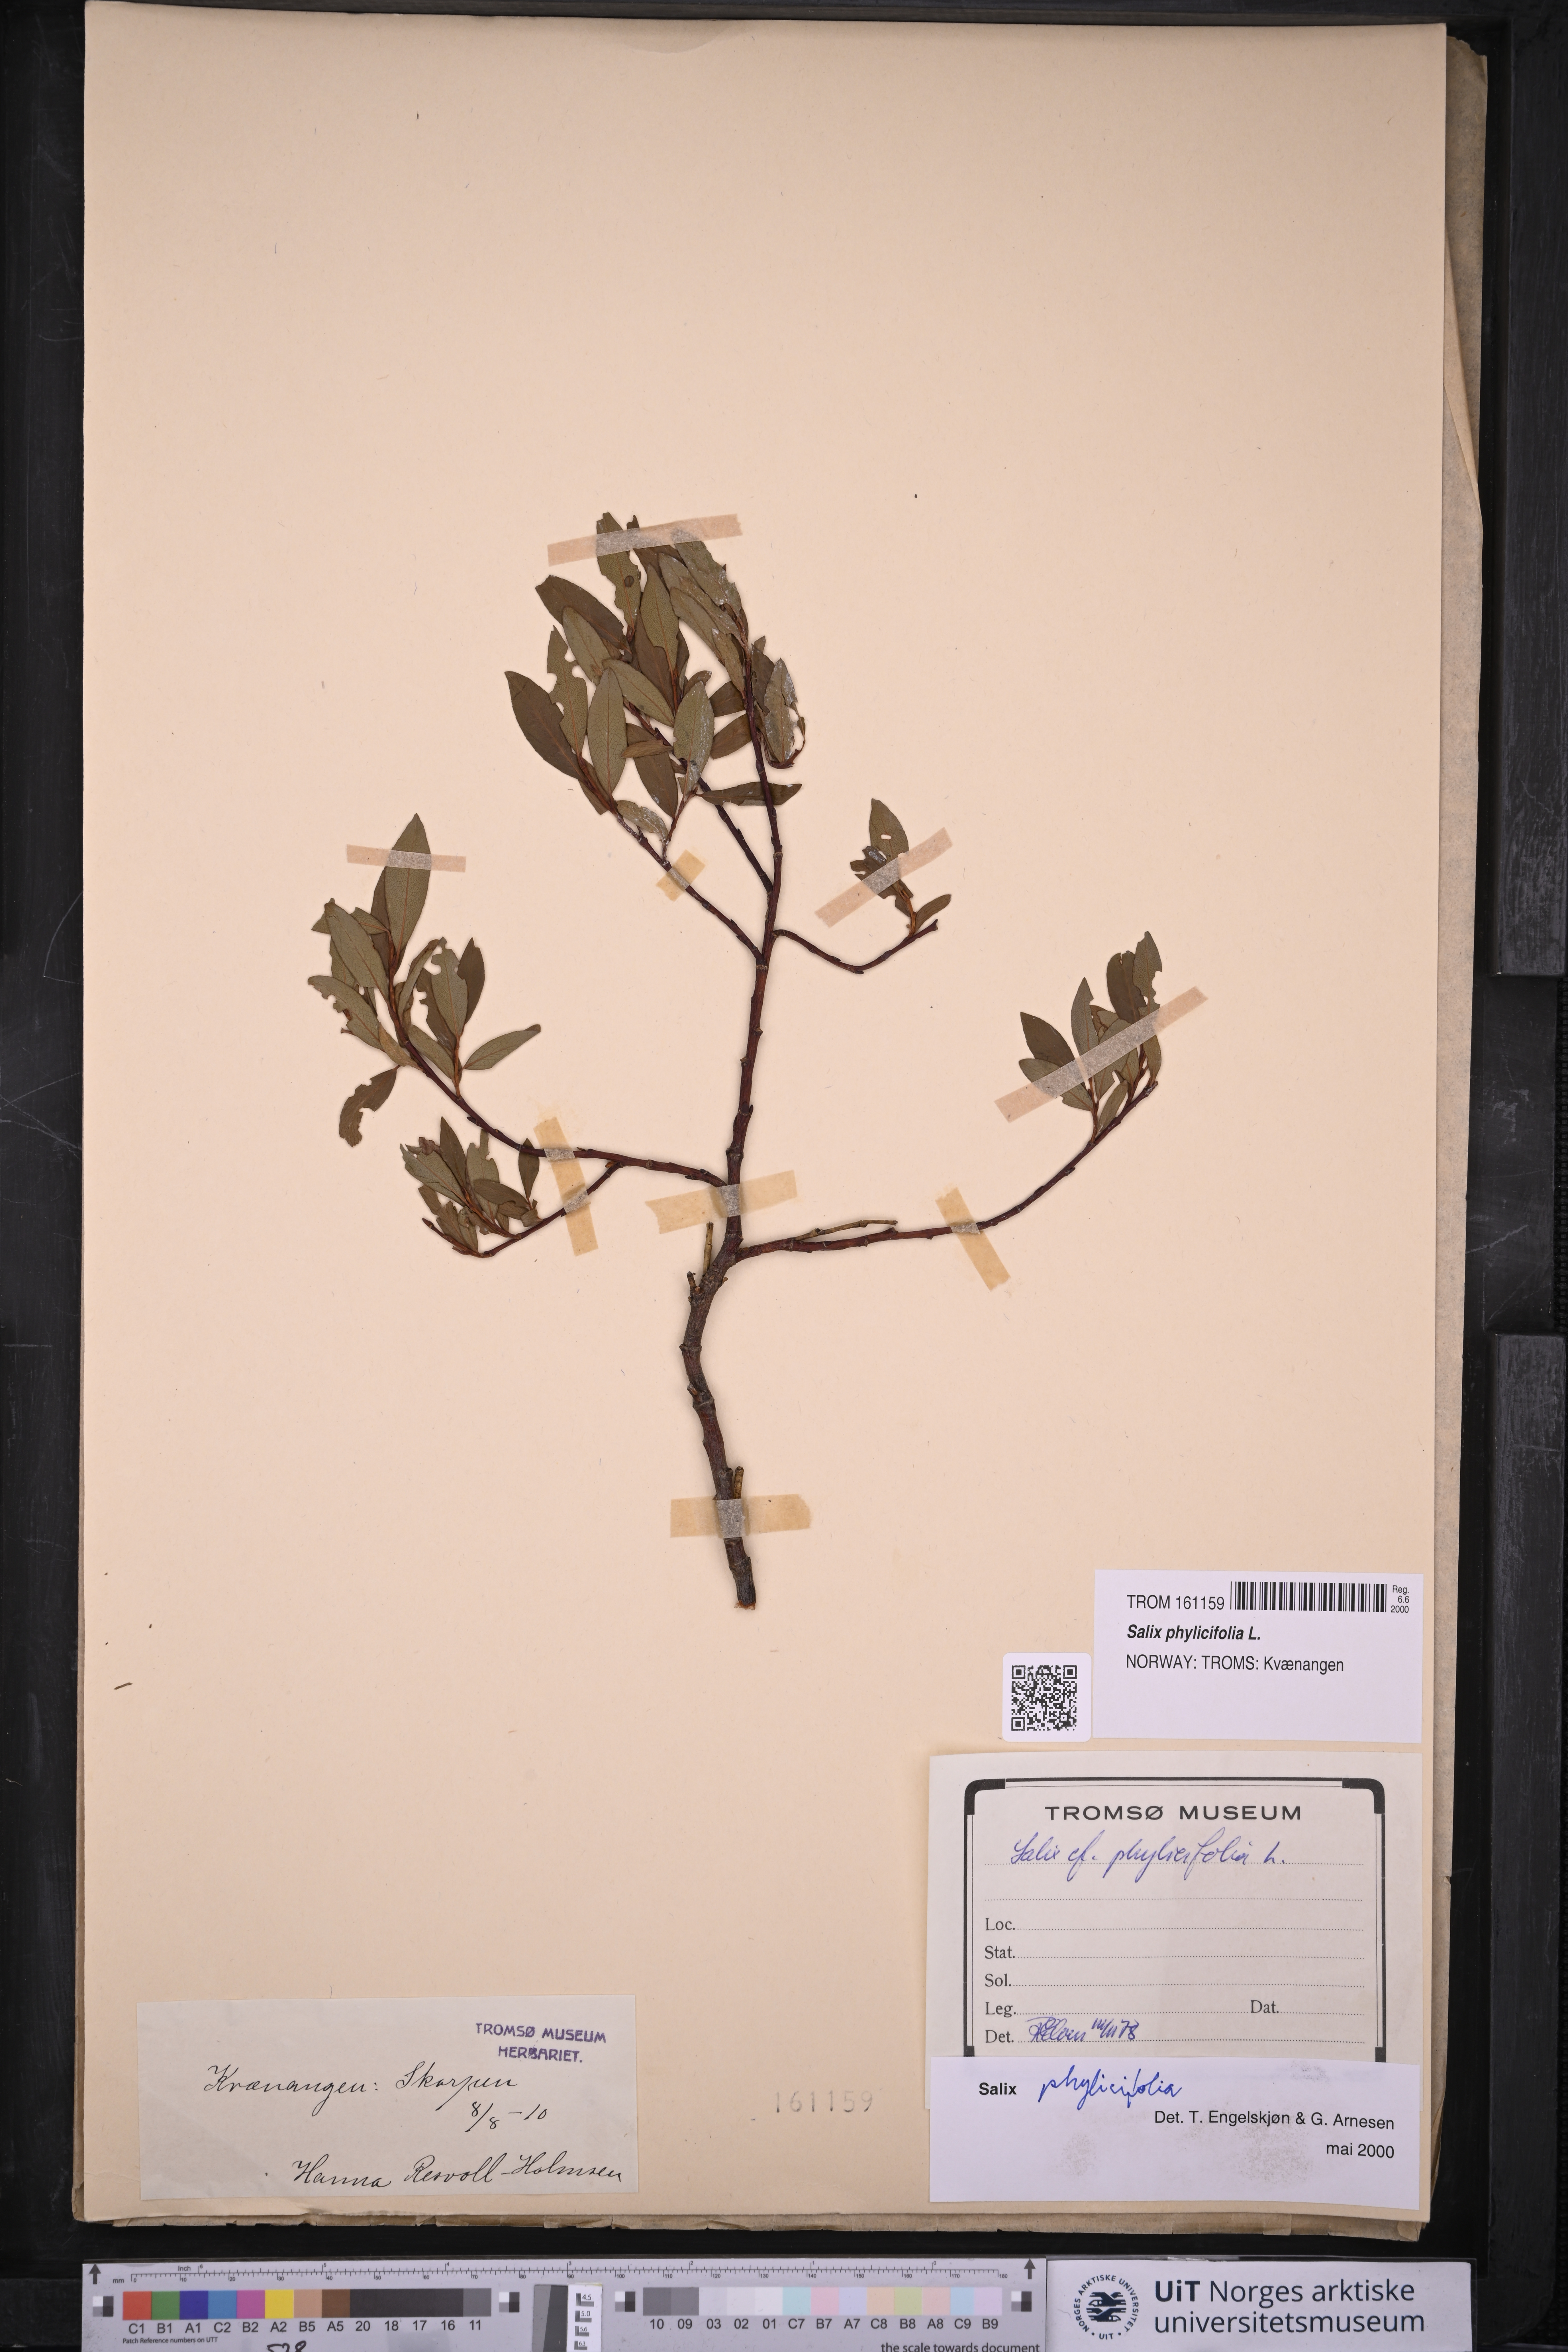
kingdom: Plantae
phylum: Tracheophyta
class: Magnoliopsida
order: Malpighiales
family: Salicaceae
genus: Salix
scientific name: Salix phylicifolia
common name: Tea-leaved willow
